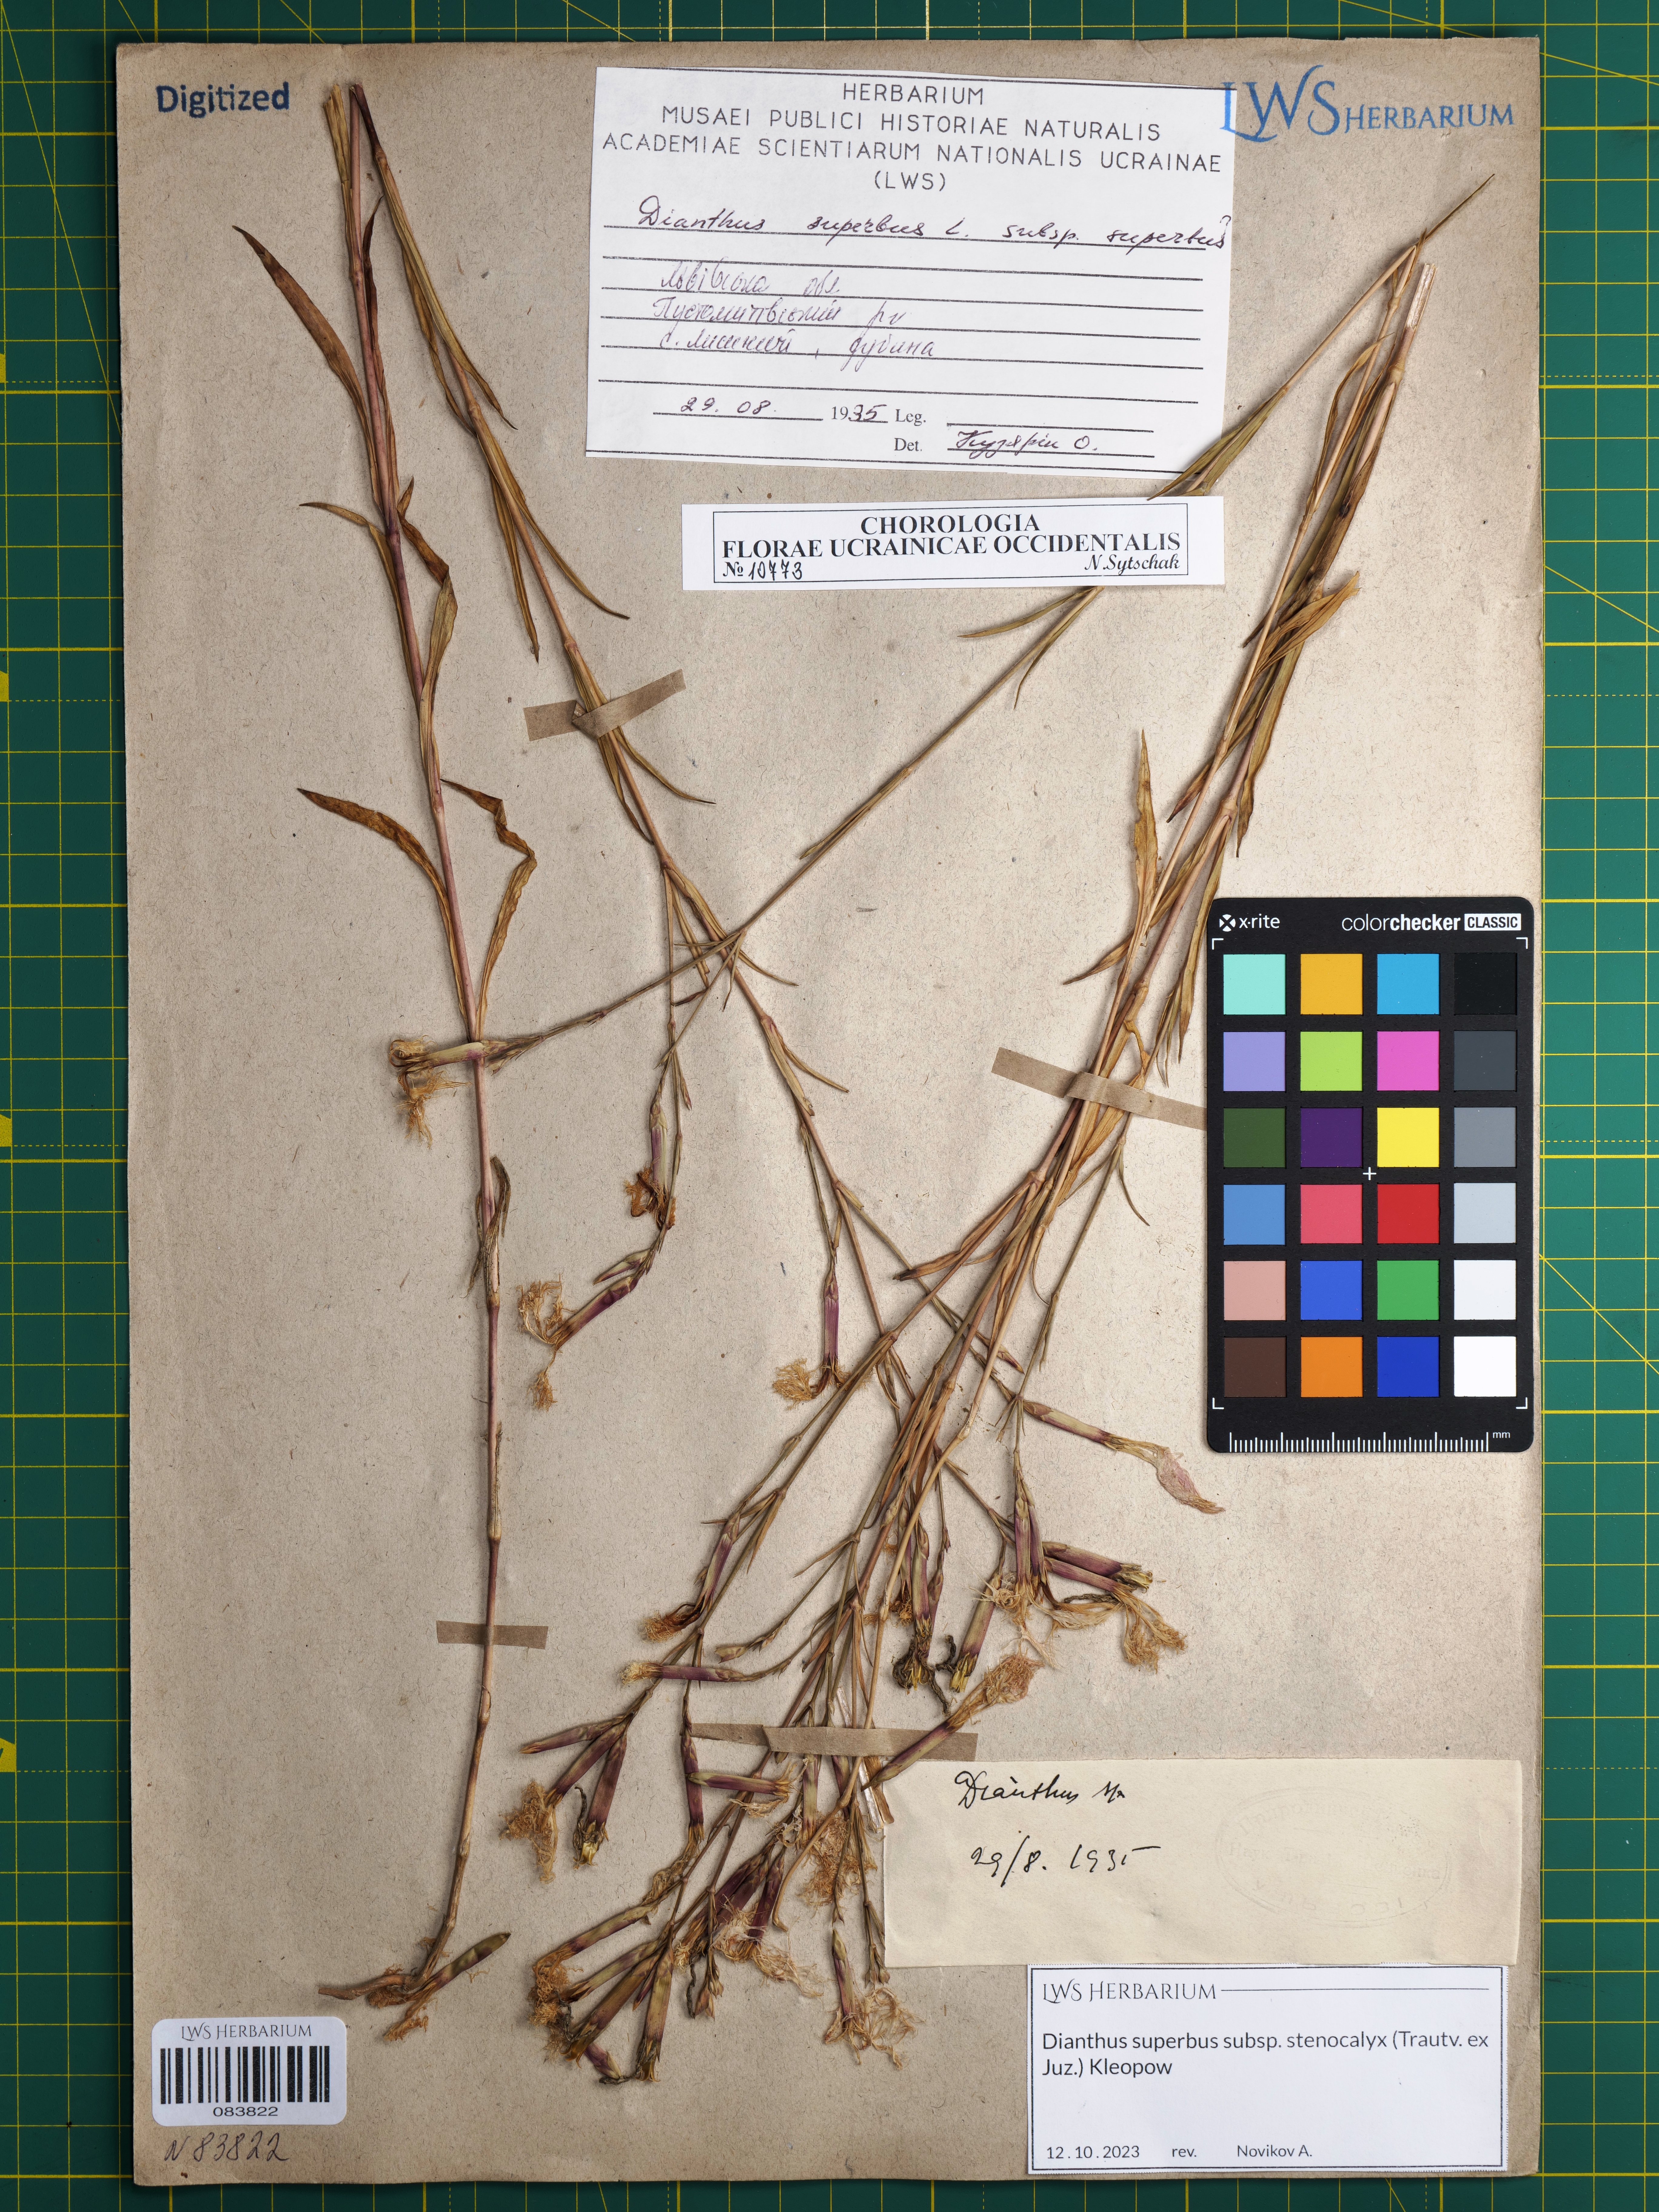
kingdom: Plantae
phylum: Tracheophyta
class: Magnoliopsida
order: Caryophyllales
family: Caryophyllaceae
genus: Dianthus
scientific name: Dianthus superbus
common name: Fringed pink
